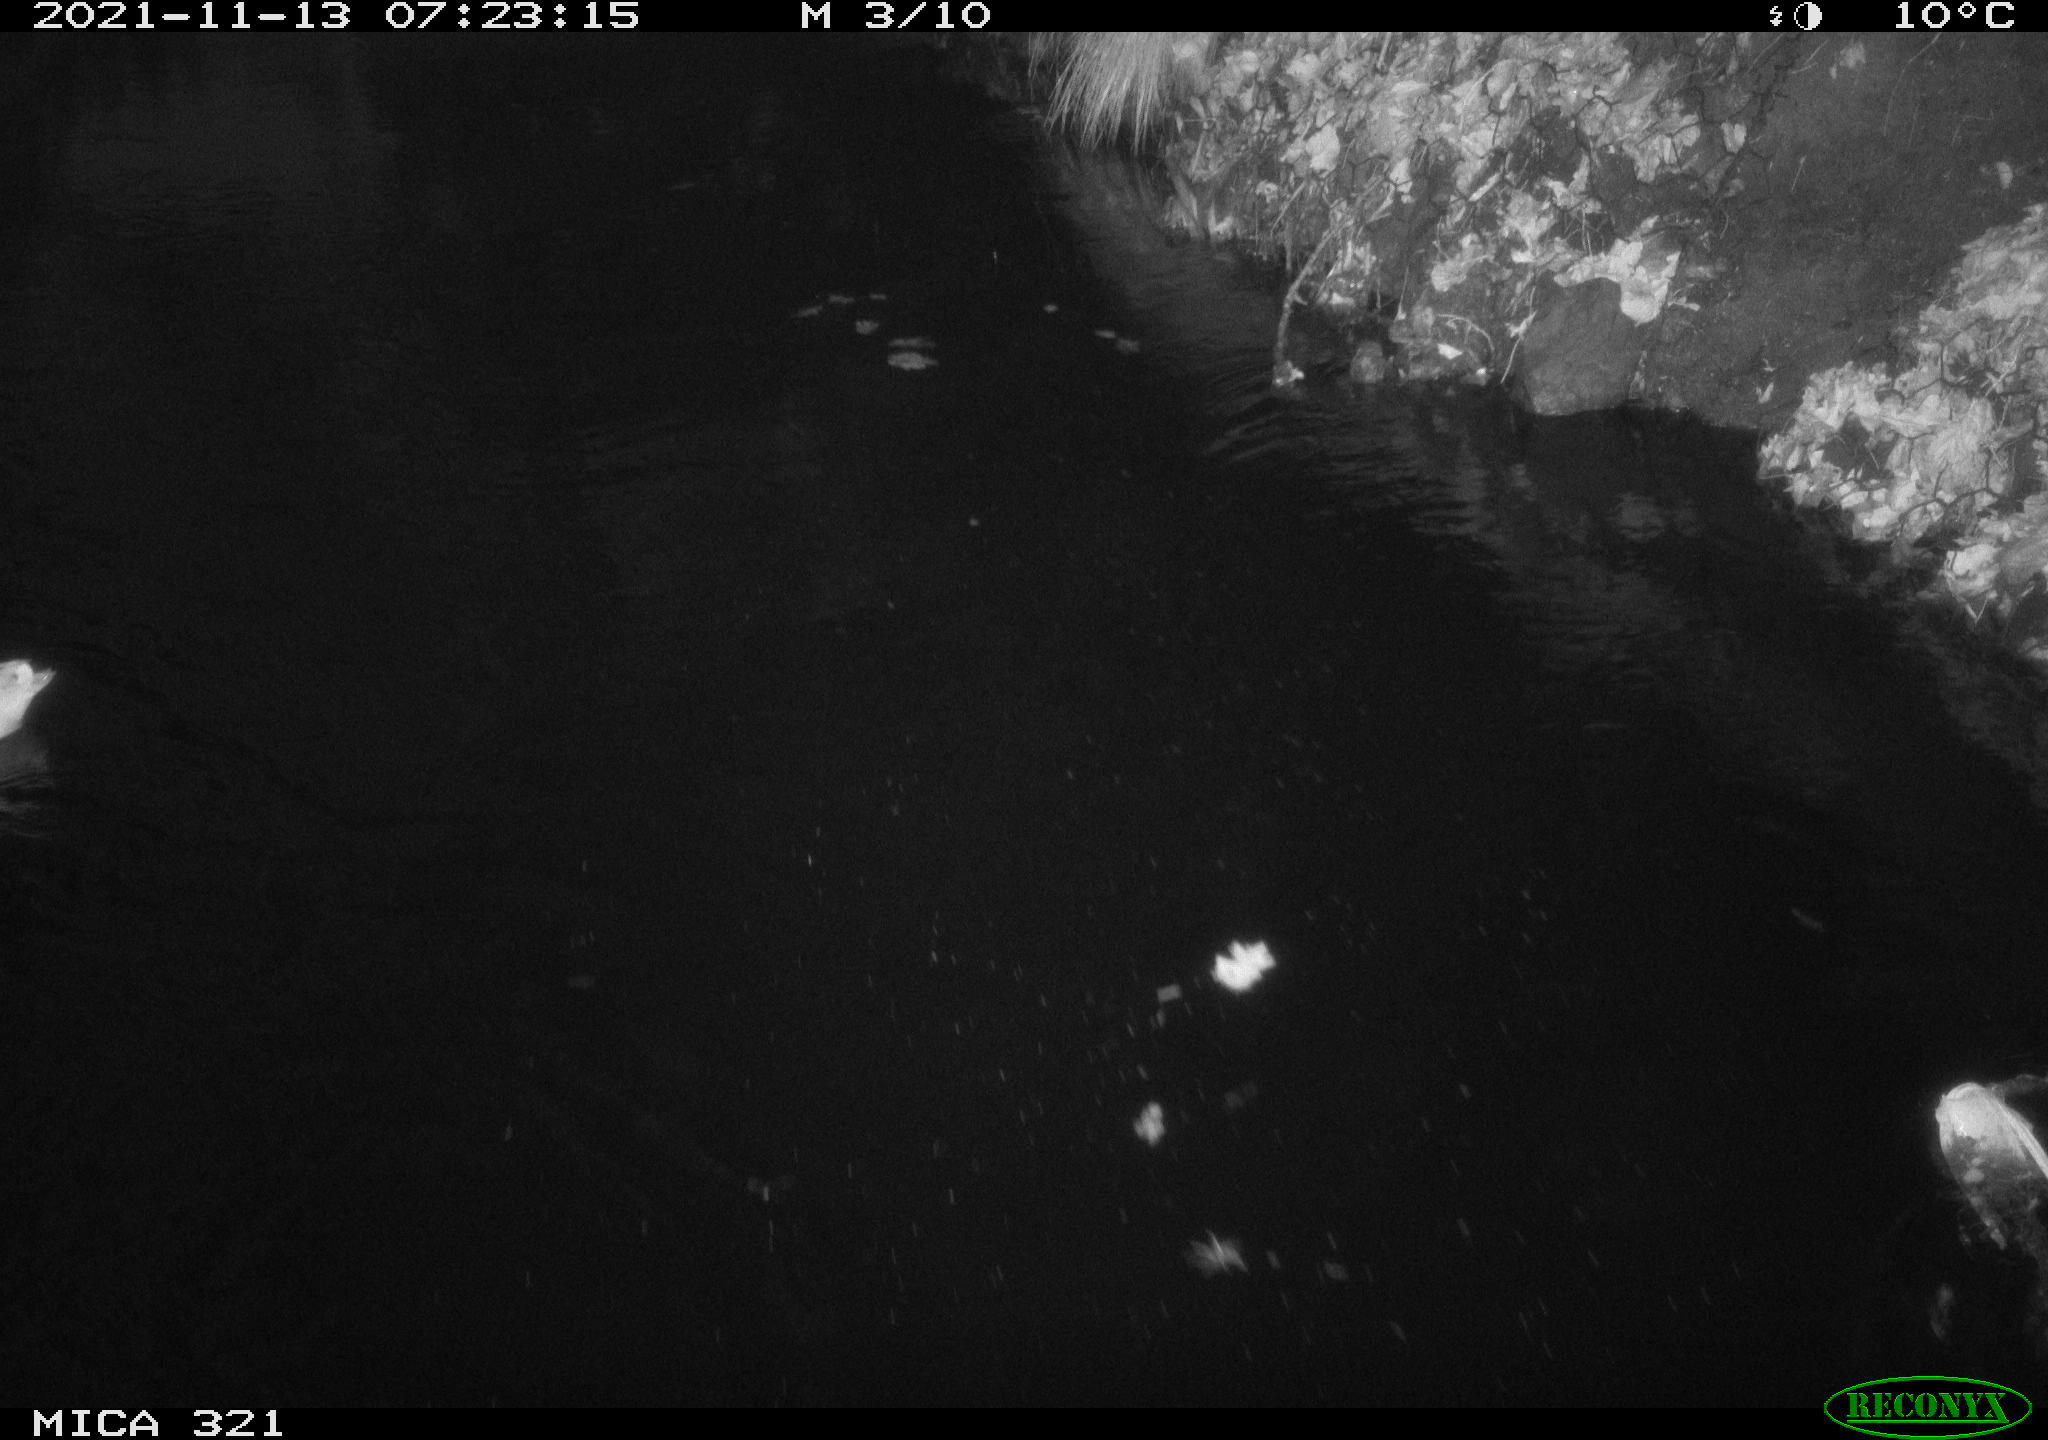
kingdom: Animalia
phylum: Chordata
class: Aves
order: Anseriformes
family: Anatidae
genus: Anas
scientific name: Anas platyrhynchos
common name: Mallard
